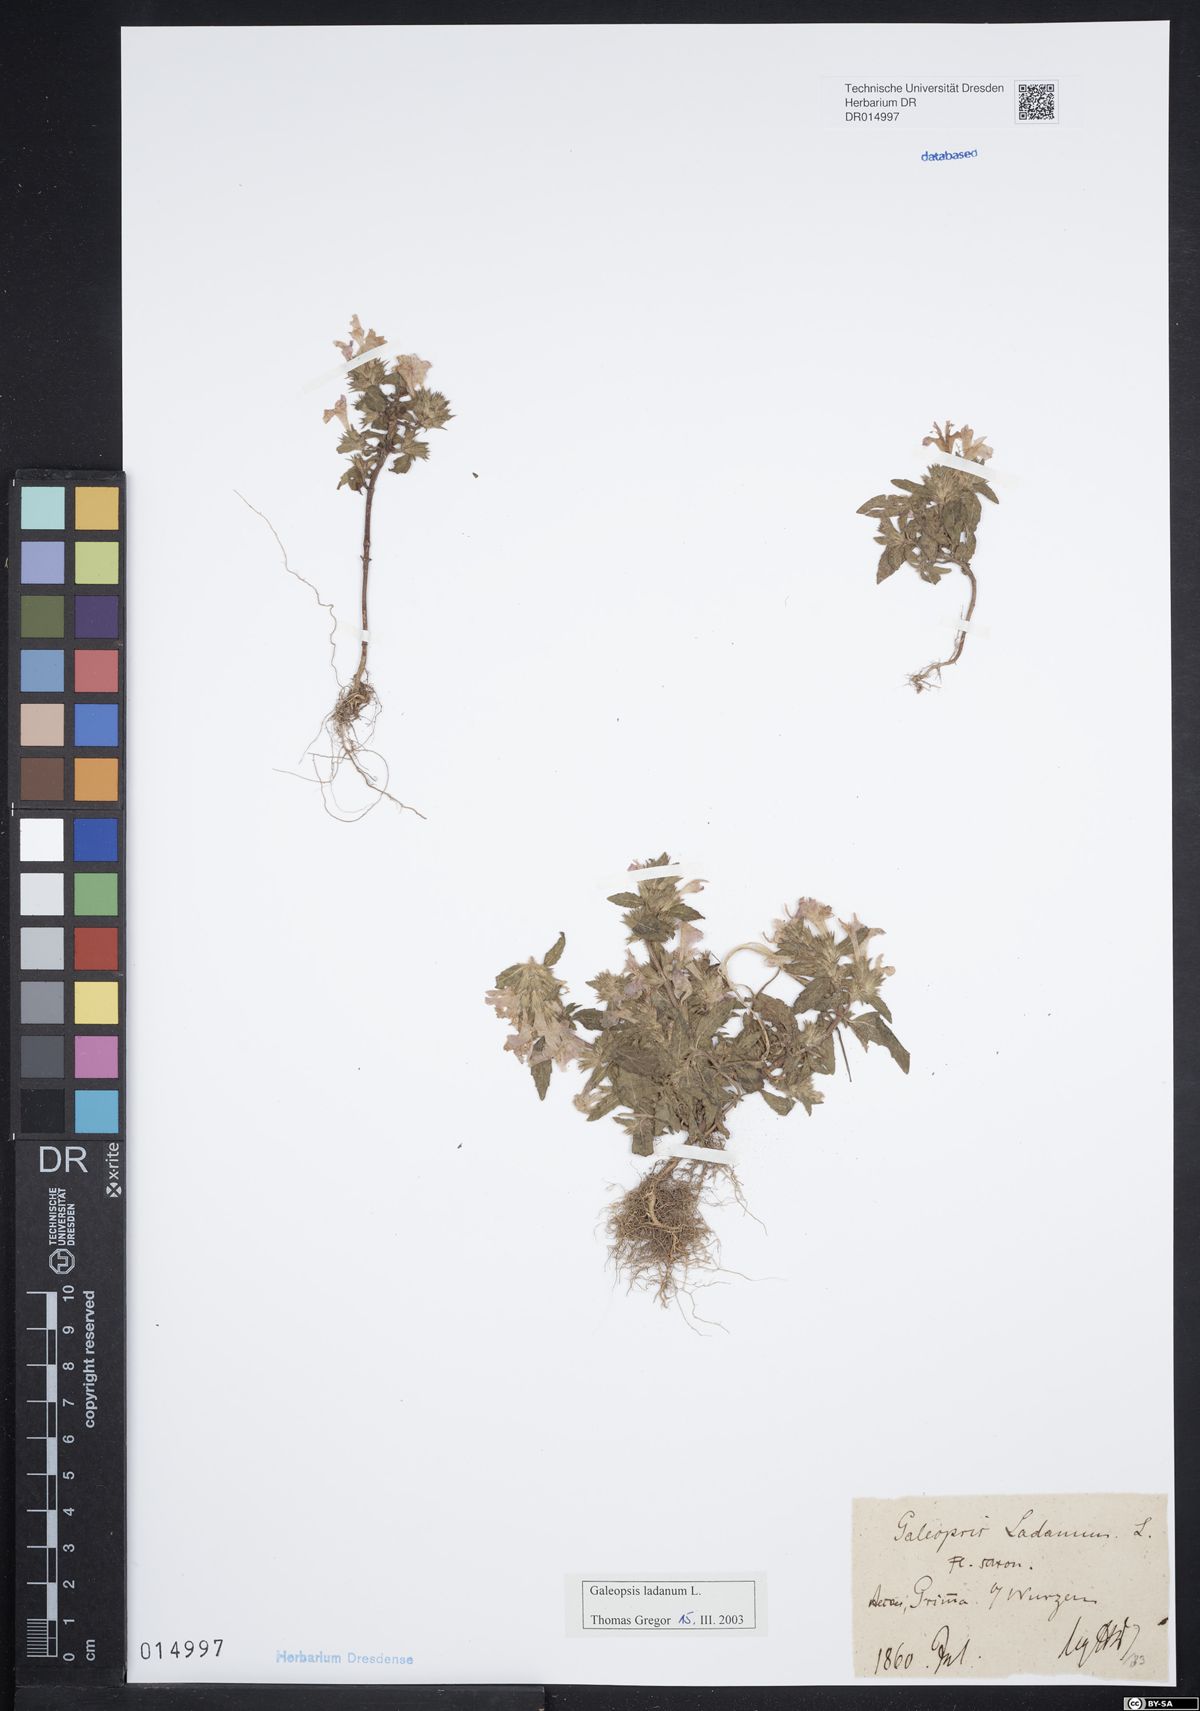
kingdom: Plantae
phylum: Tracheophyta
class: Magnoliopsida
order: Lamiales
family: Lamiaceae
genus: Galeopsis
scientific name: Galeopsis ladanum
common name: Broad-leaved hemp-nettle
